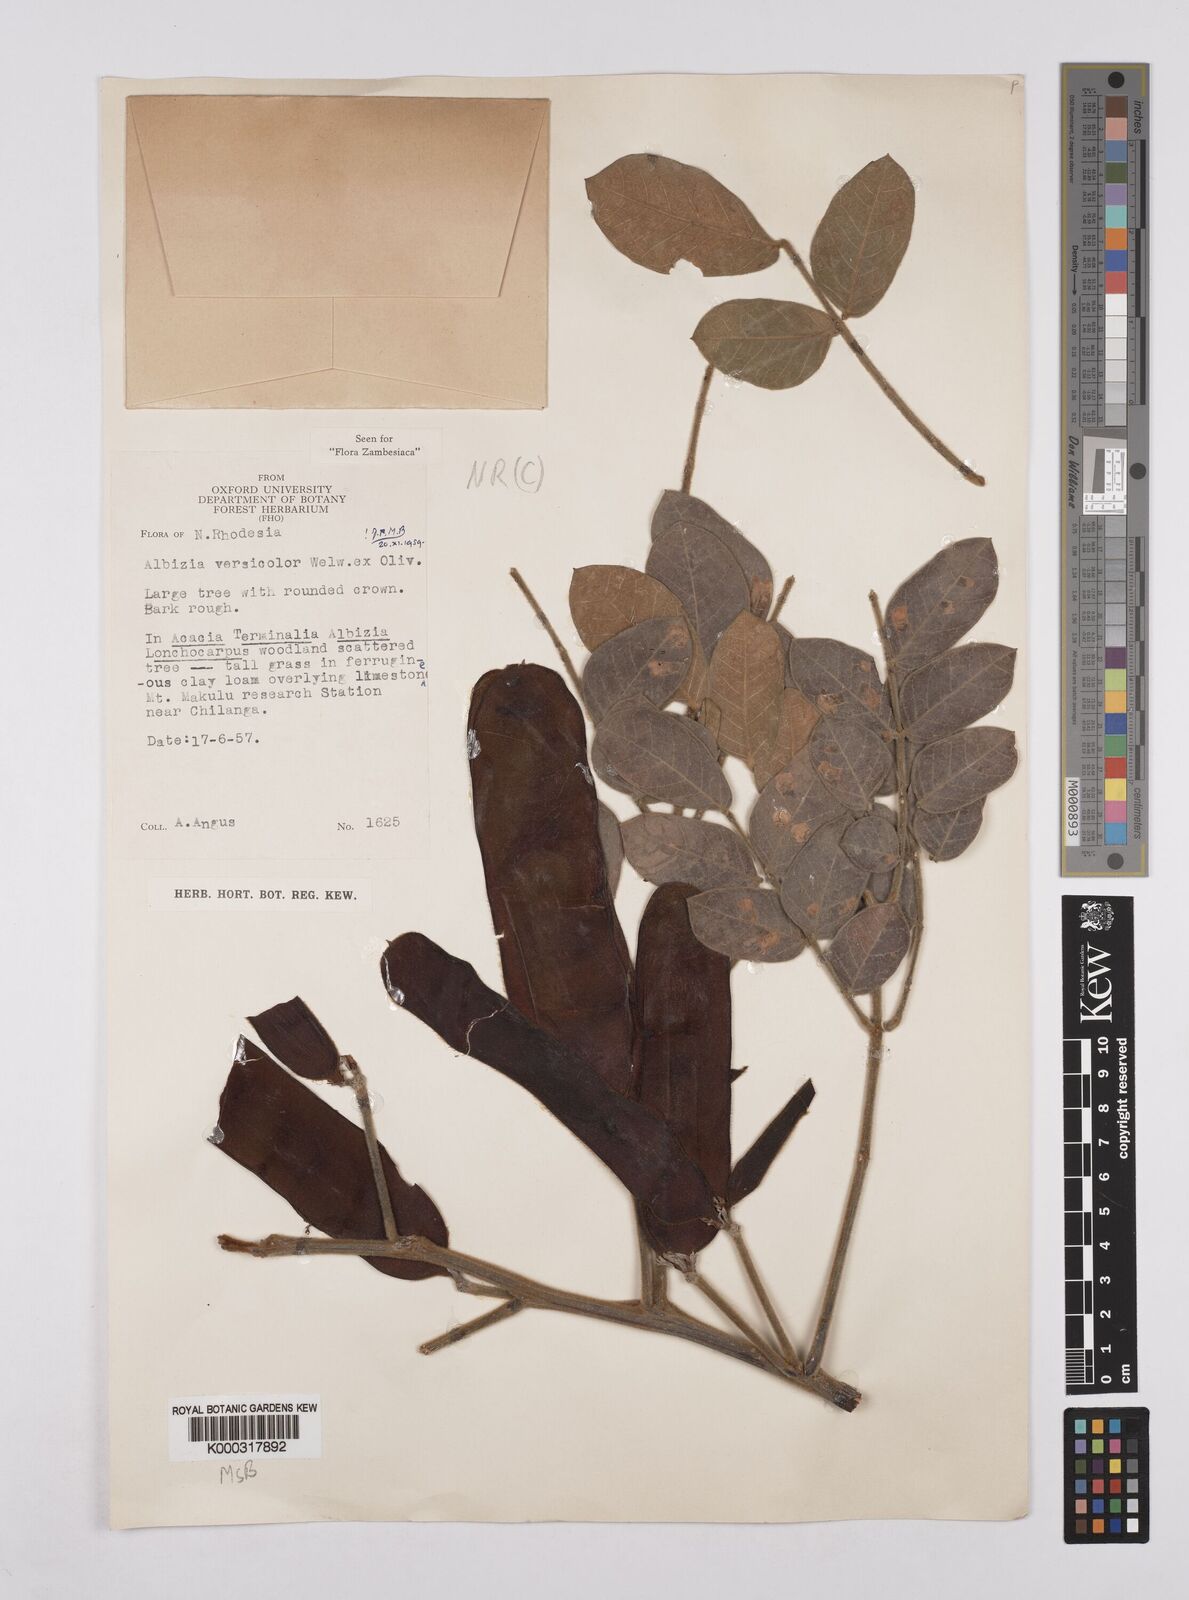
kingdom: Plantae
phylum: Tracheophyta
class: Magnoliopsida
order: Fabales
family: Fabaceae
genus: Albizia
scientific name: Albizia versicolor
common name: Poisonpod
